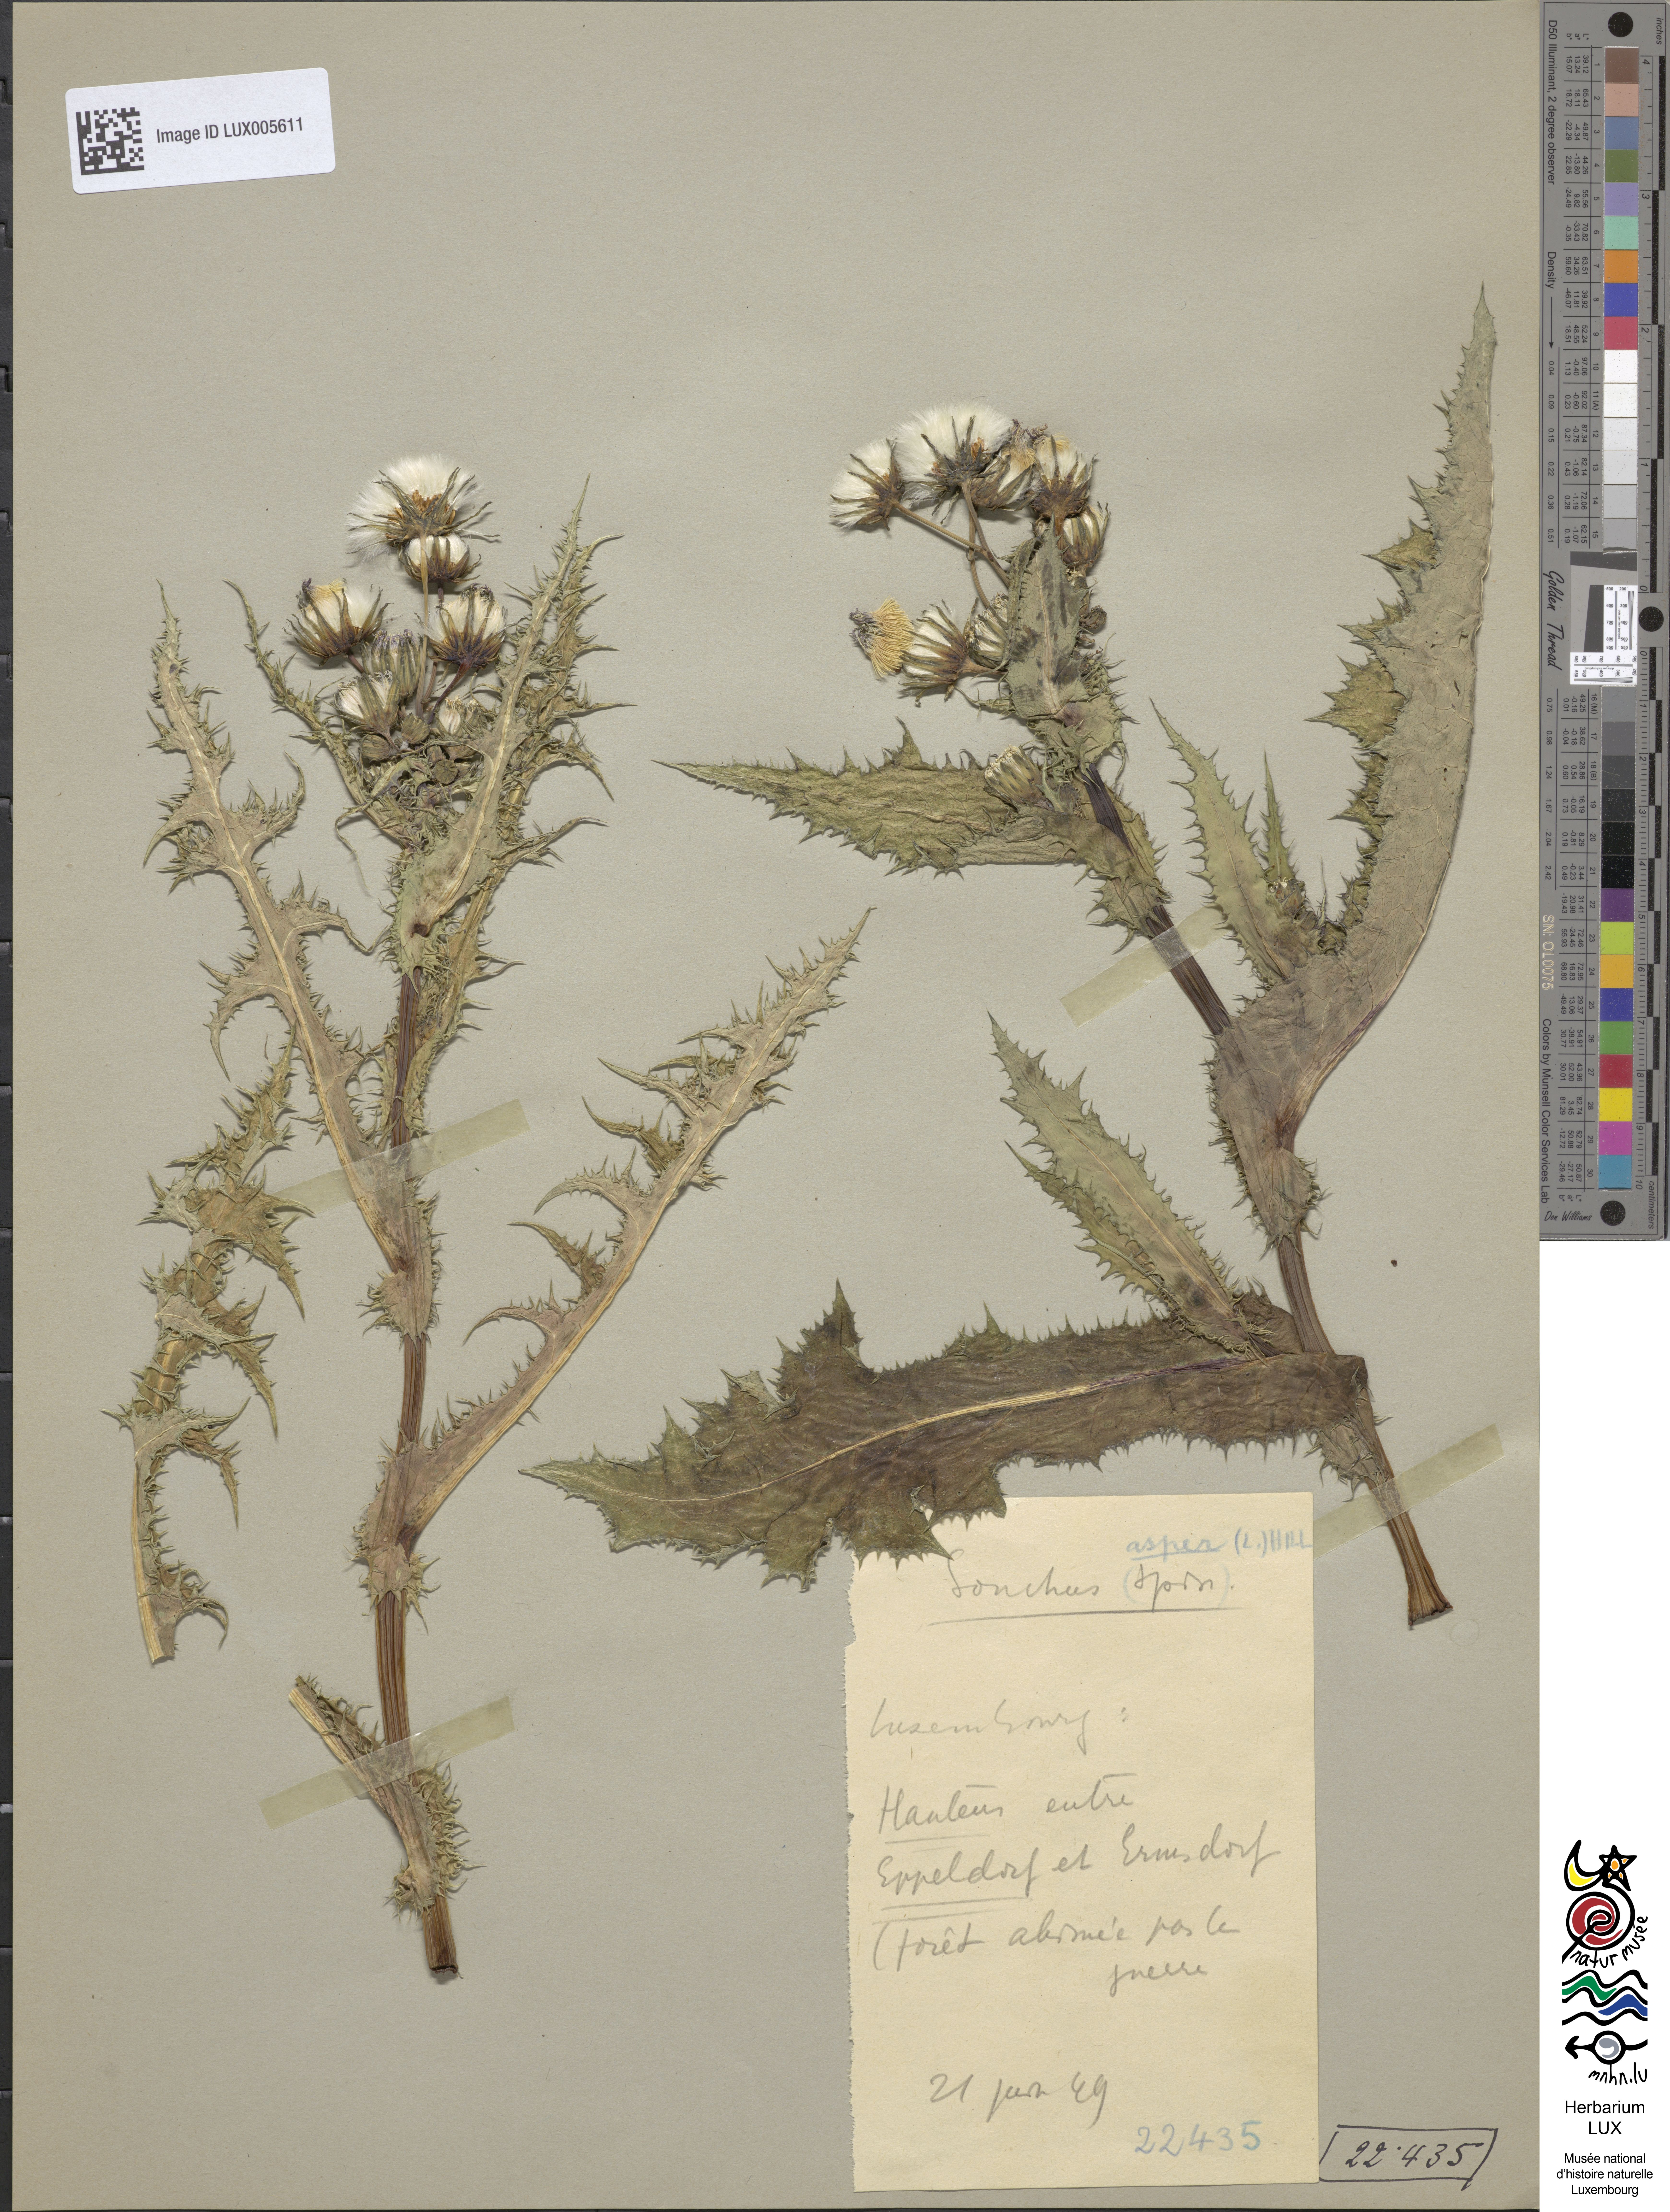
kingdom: Plantae
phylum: Tracheophyta
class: Magnoliopsida
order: Asterales
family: Asteraceae
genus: Sonchus
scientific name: Sonchus asper
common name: Prickly sow-thistle
